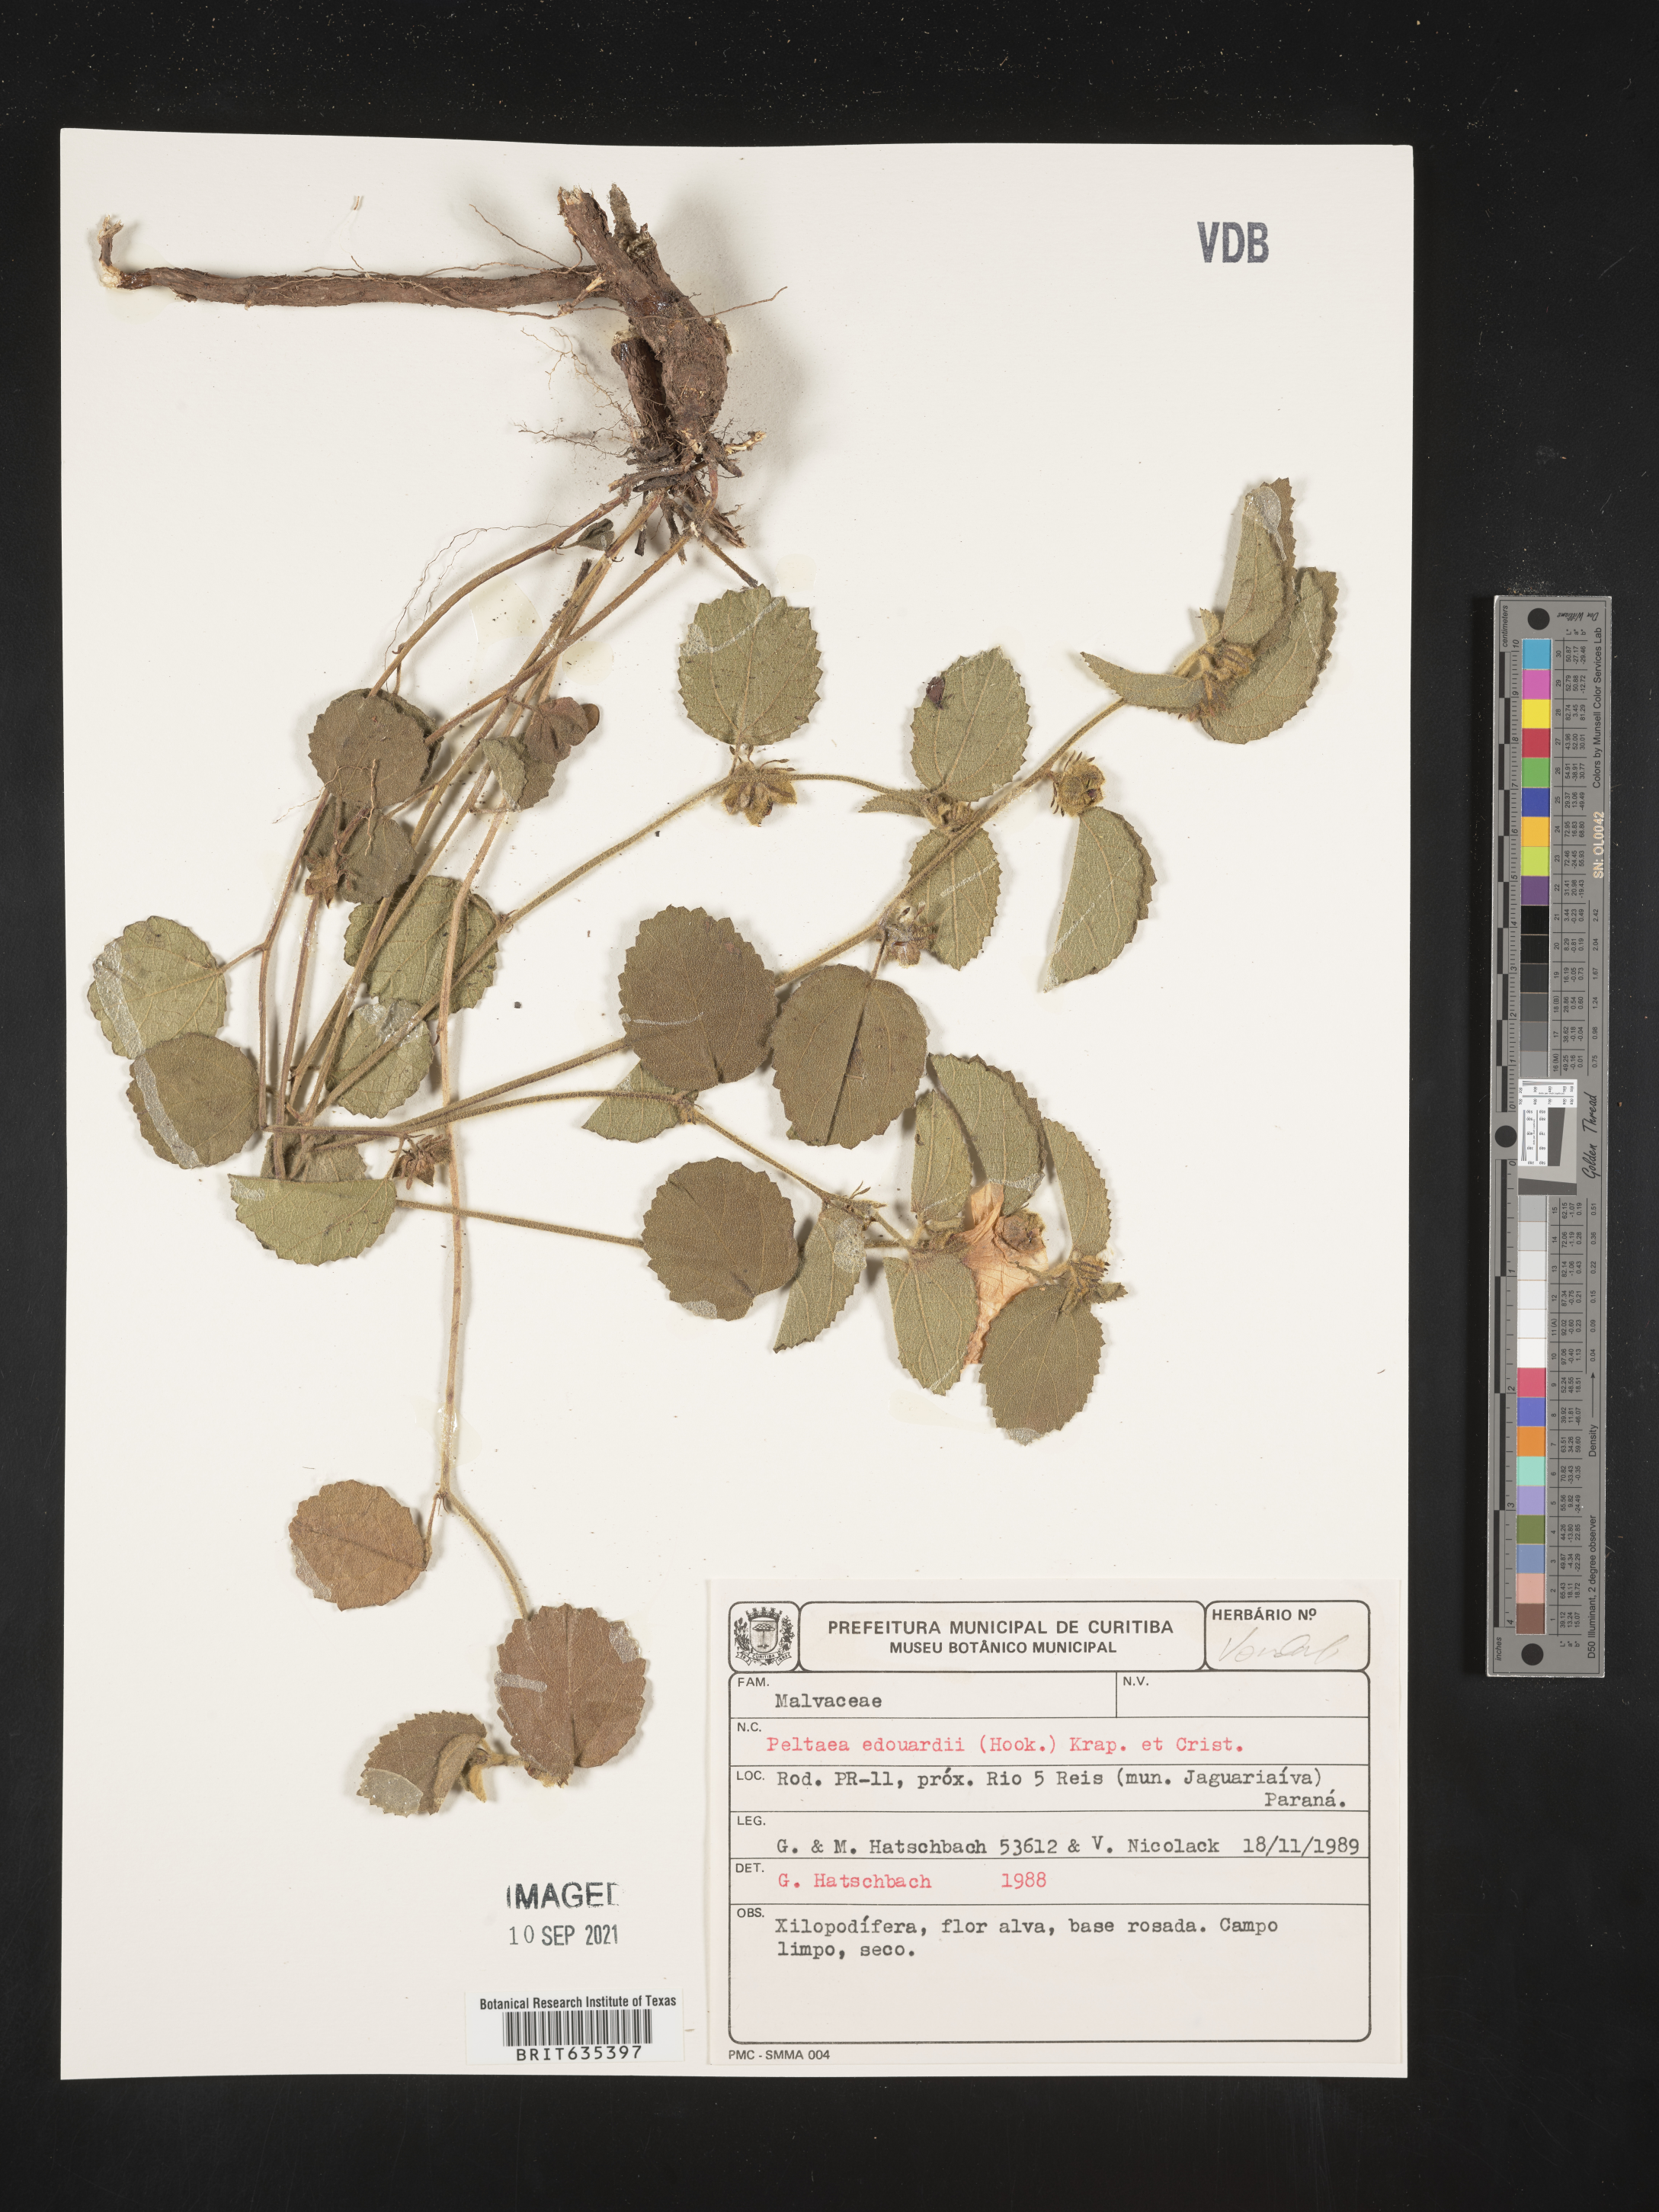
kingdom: Plantae
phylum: Tracheophyta
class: Magnoliopsida
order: Malvales
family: Malvaceae
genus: Peltaea
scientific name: Peltaea
